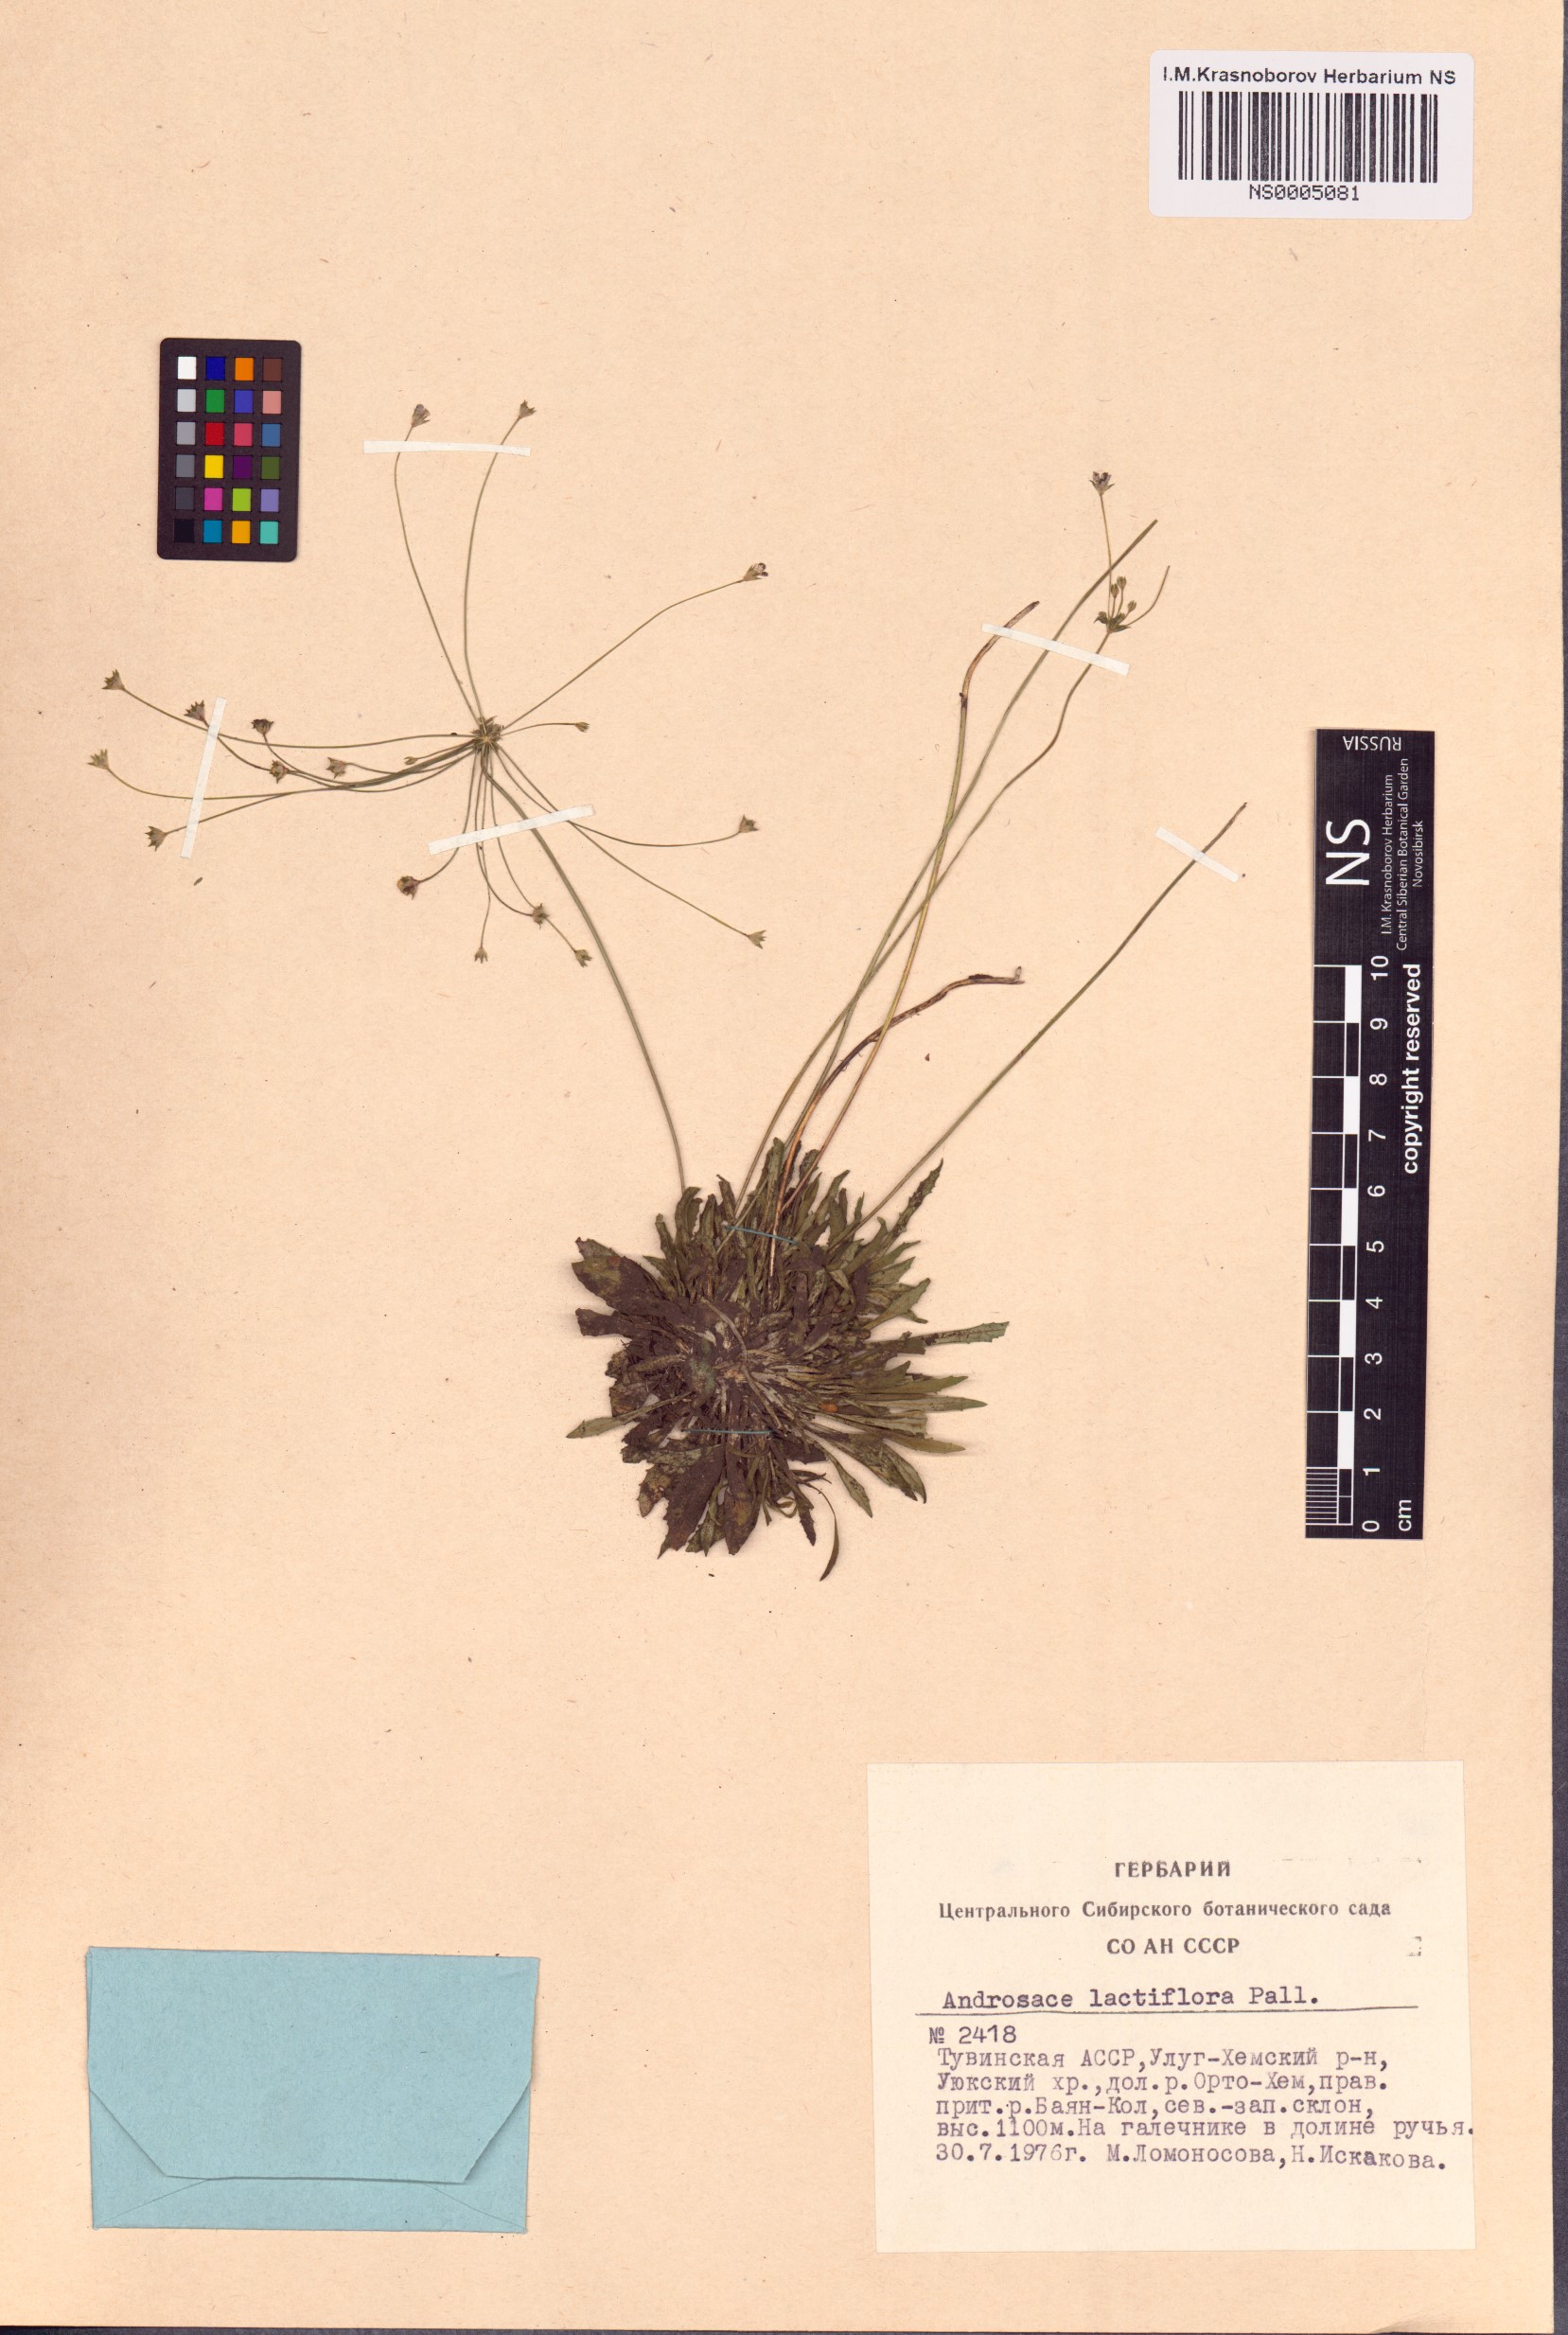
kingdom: Plantae
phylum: Tracheophyta
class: Magnoliopsida
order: Ericales
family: Primulaceae
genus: Androsace
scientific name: Androsace lactiflora
